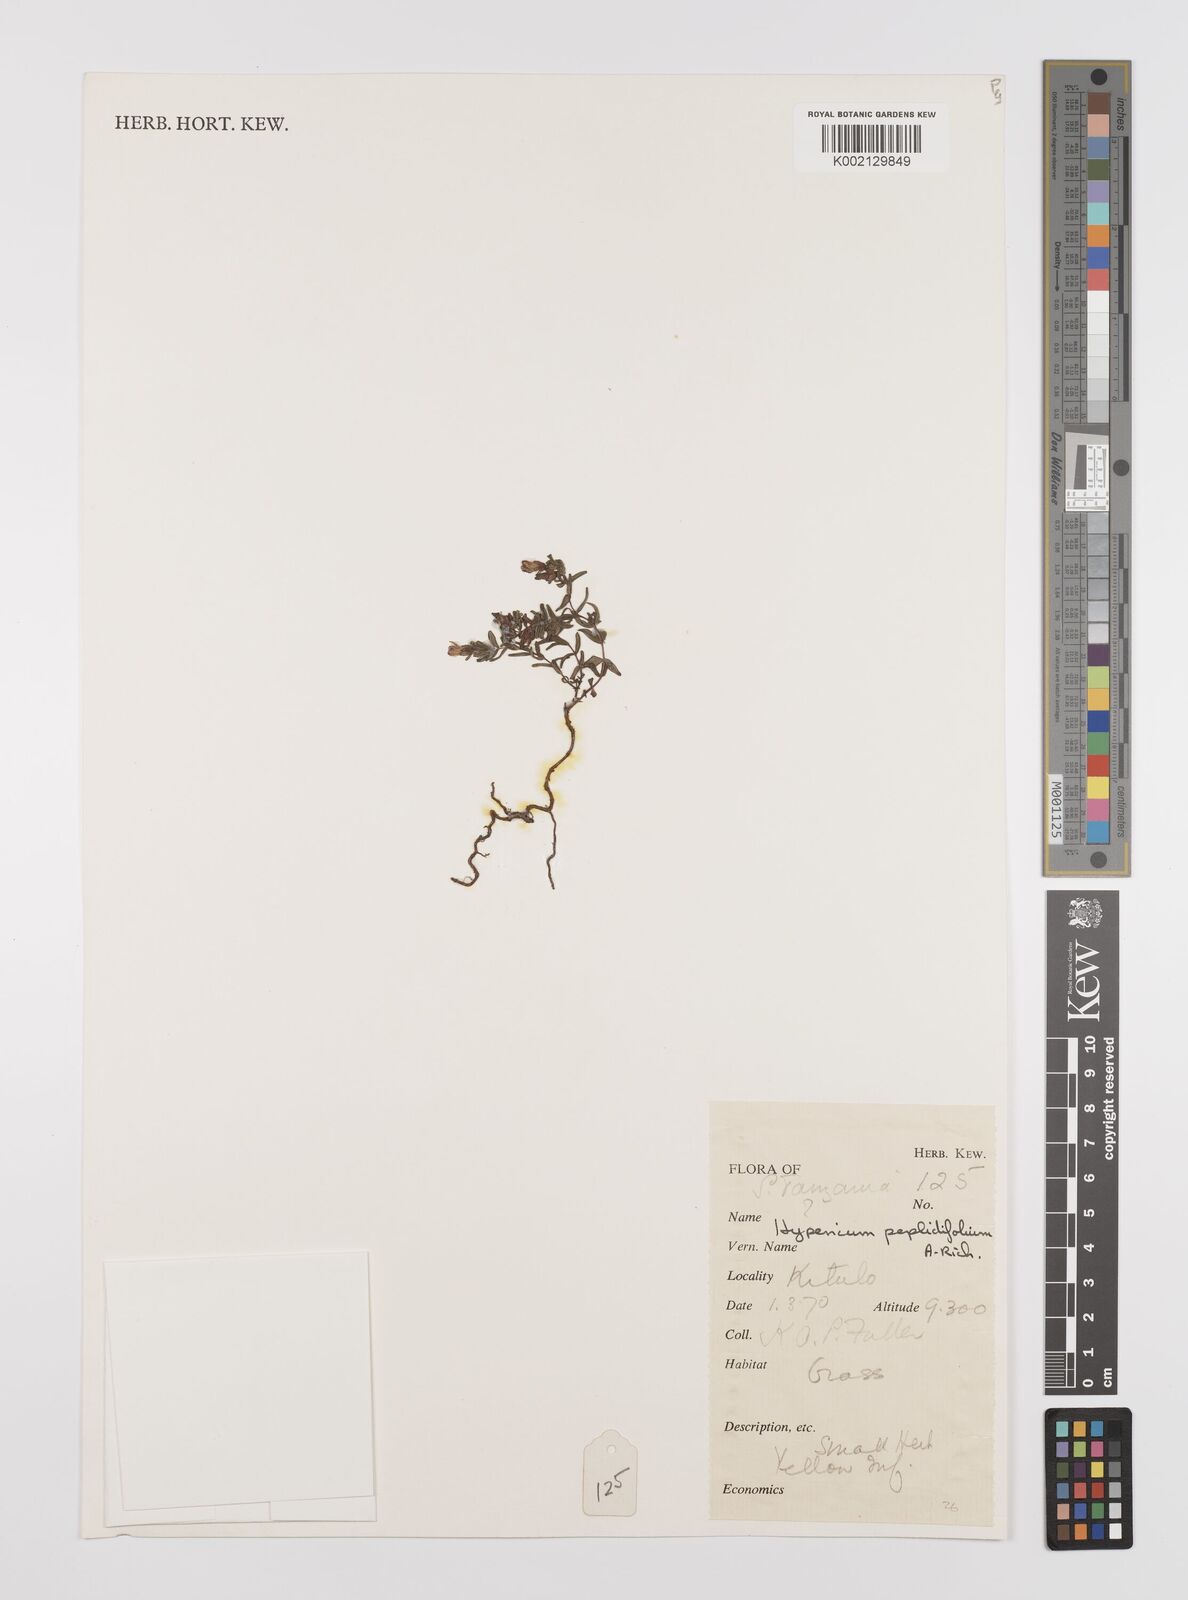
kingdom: Plantae
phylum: Tracheophyta
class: Magnoliopsida
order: Malpighiales
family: Hypericaceae
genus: Hypericum
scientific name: Hypericum peplidifolium
